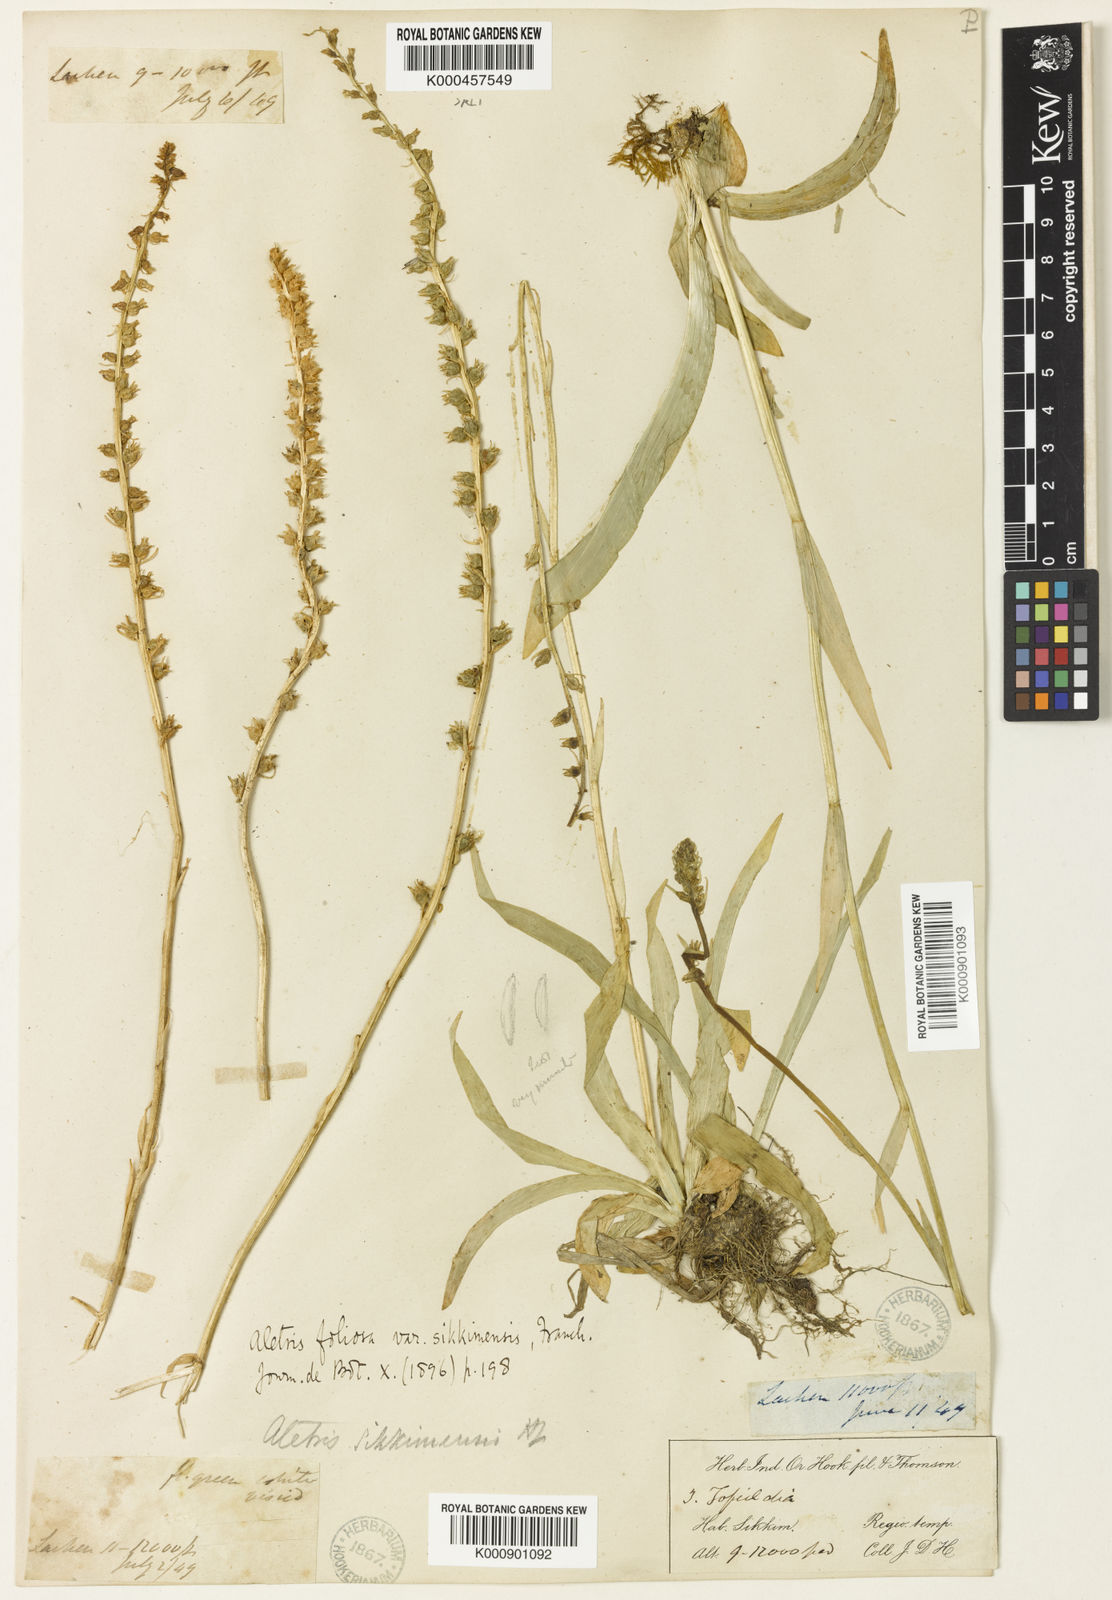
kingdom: Plantae
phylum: Tracheophyta
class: Liliopsida
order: Dioscoreales
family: Nartheciaceae
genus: Aletris
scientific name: Aletris glabra
